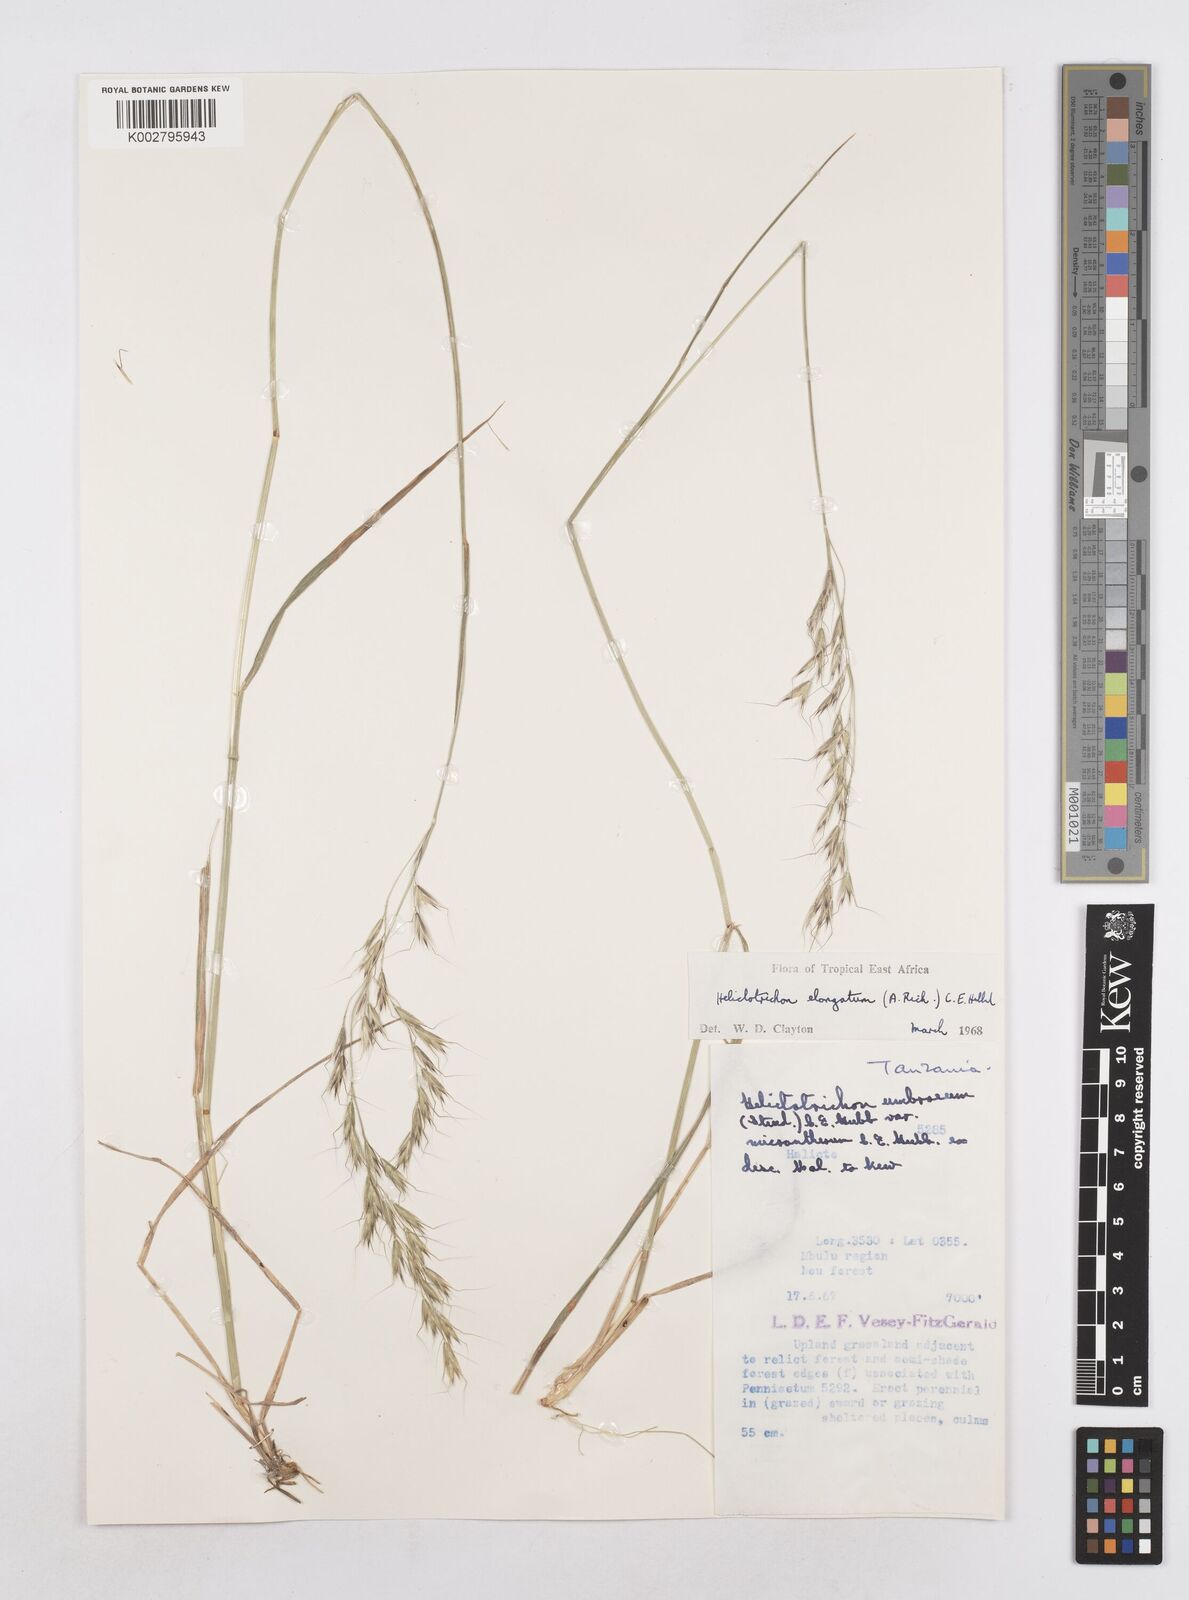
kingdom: Plantae
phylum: Tracheophyta
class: Liliopsida
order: Poales
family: Poaceae
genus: Trisetopsis
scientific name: Trisetopsis elongata
